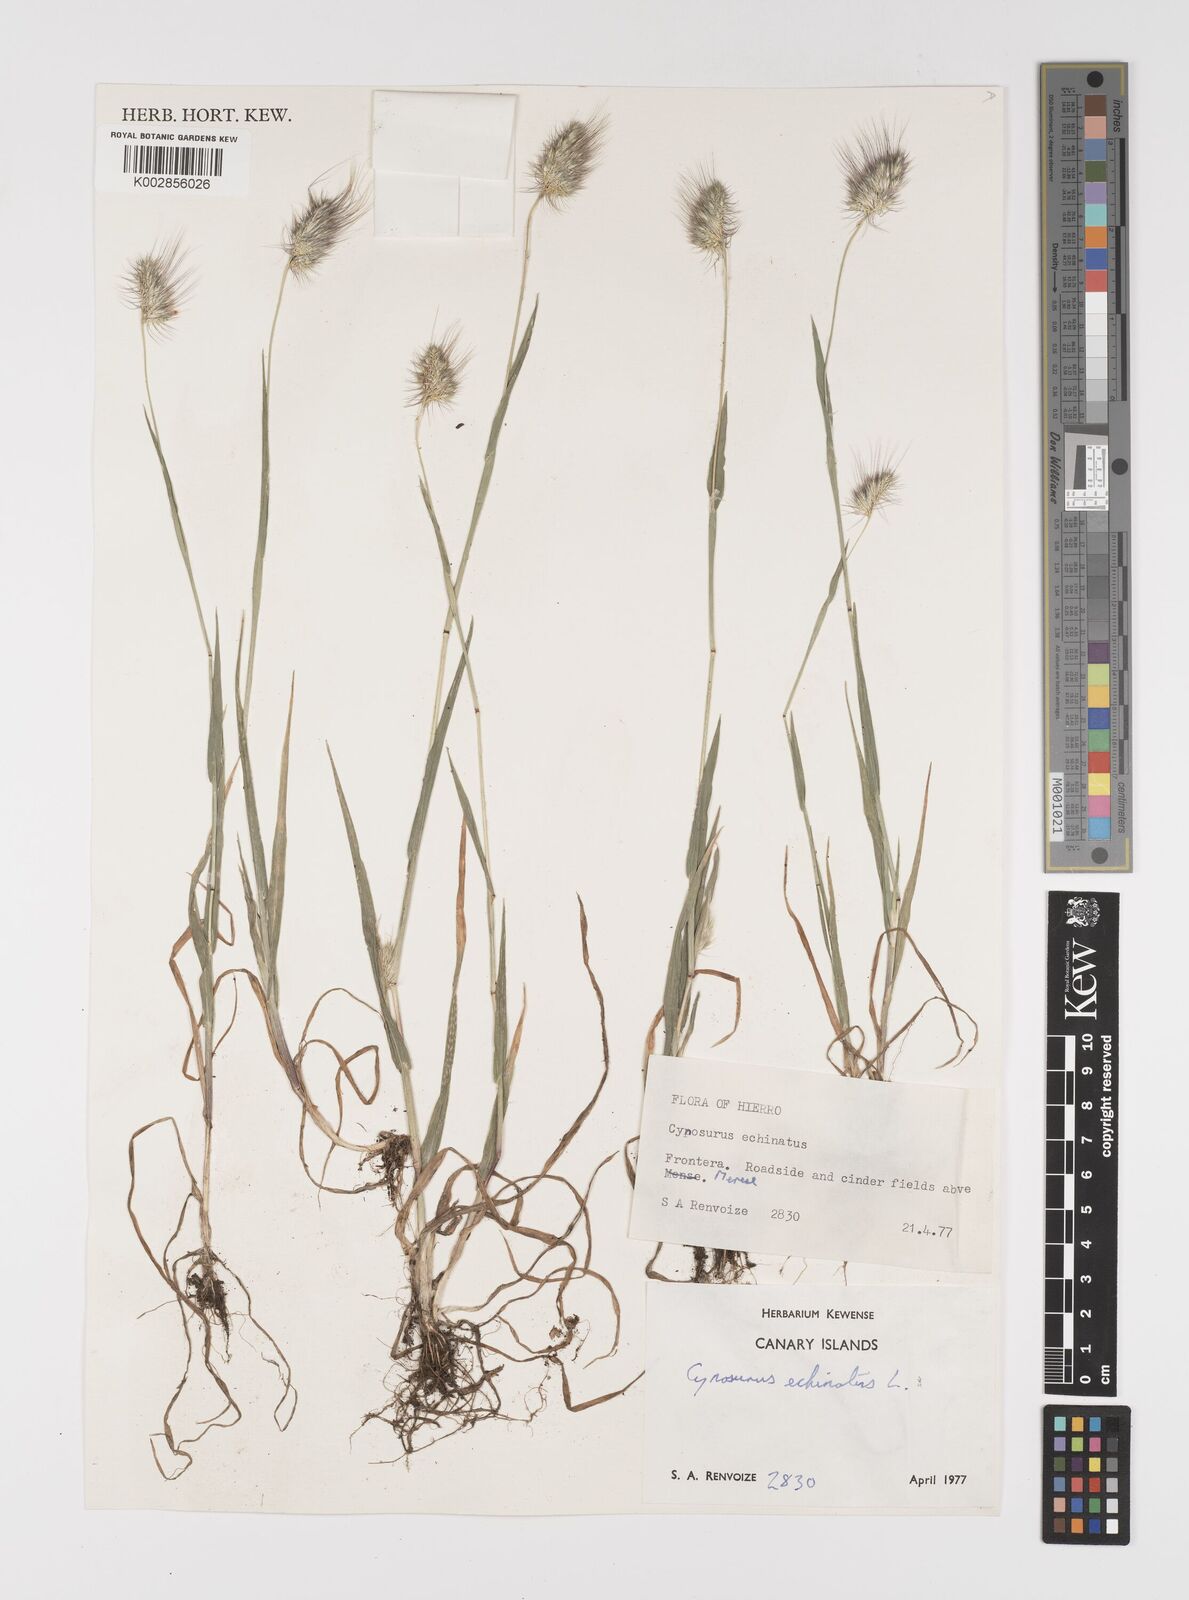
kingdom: Plantae
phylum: Tracheophyta
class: Liliopsida
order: Poales
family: Poaceae
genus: Cynosurus
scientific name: Cynosurus echinatus
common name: Rough dog's-tail
